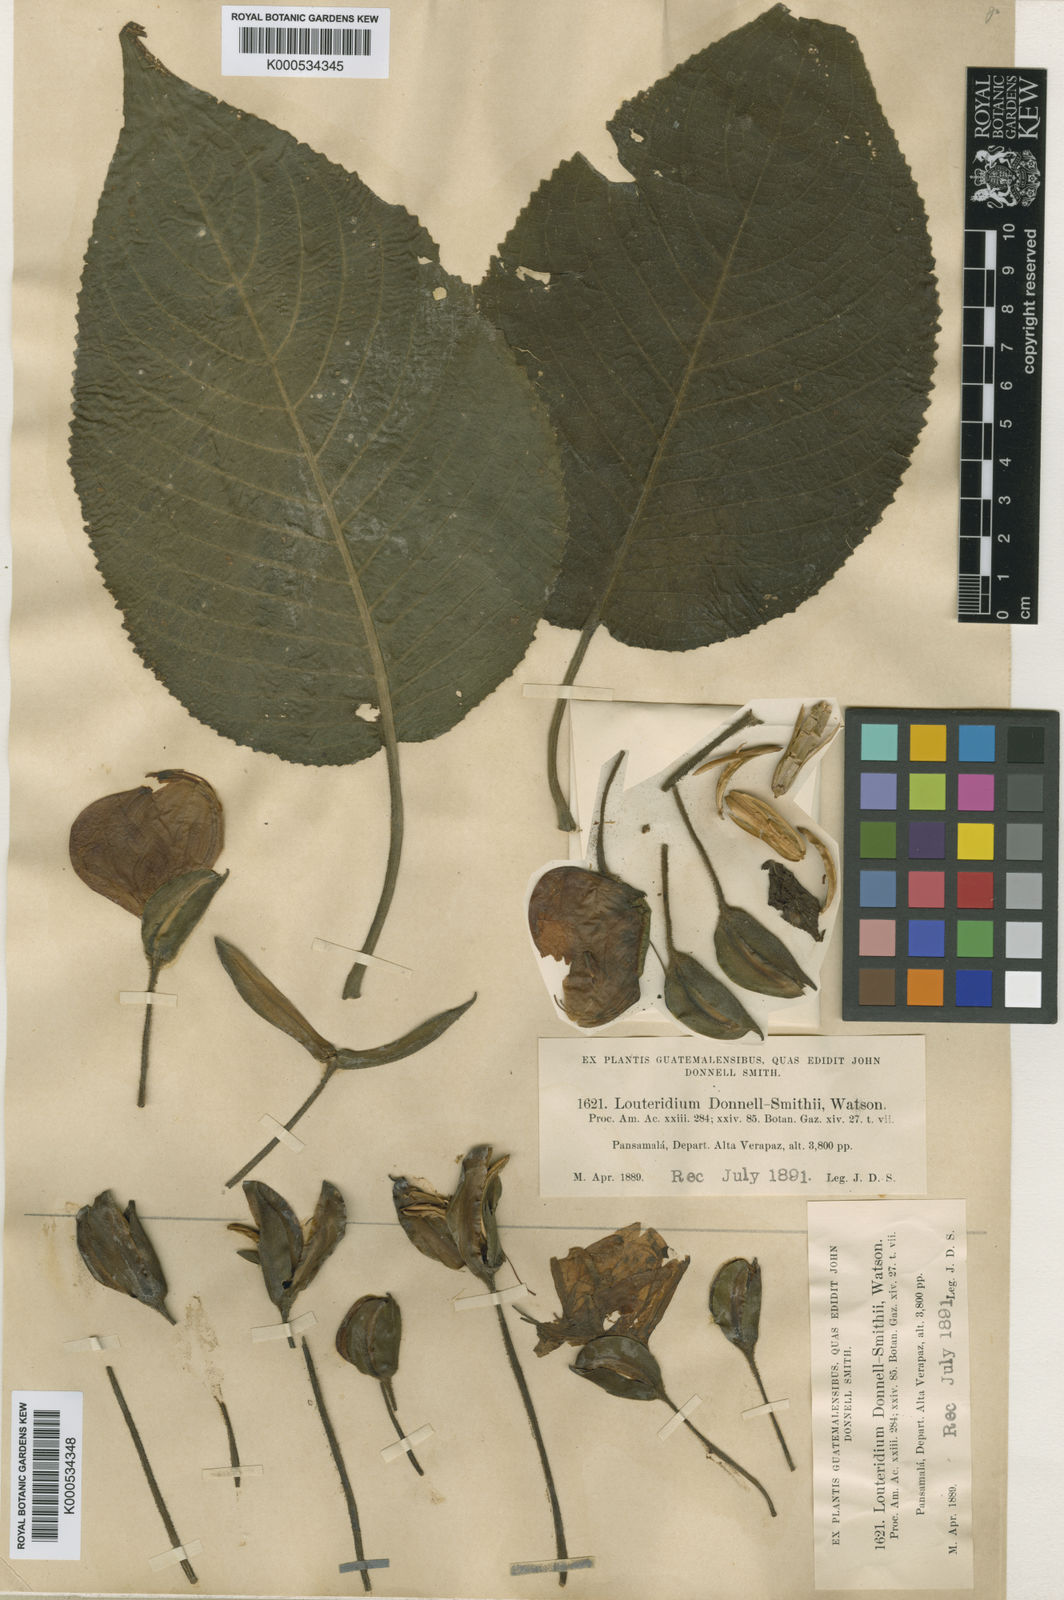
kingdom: Plantae
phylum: Tracheophyta
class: Magnoliopsida
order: Lamiales
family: Acanthaceae
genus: Louteridium
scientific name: Louteridium donnell-smithii
